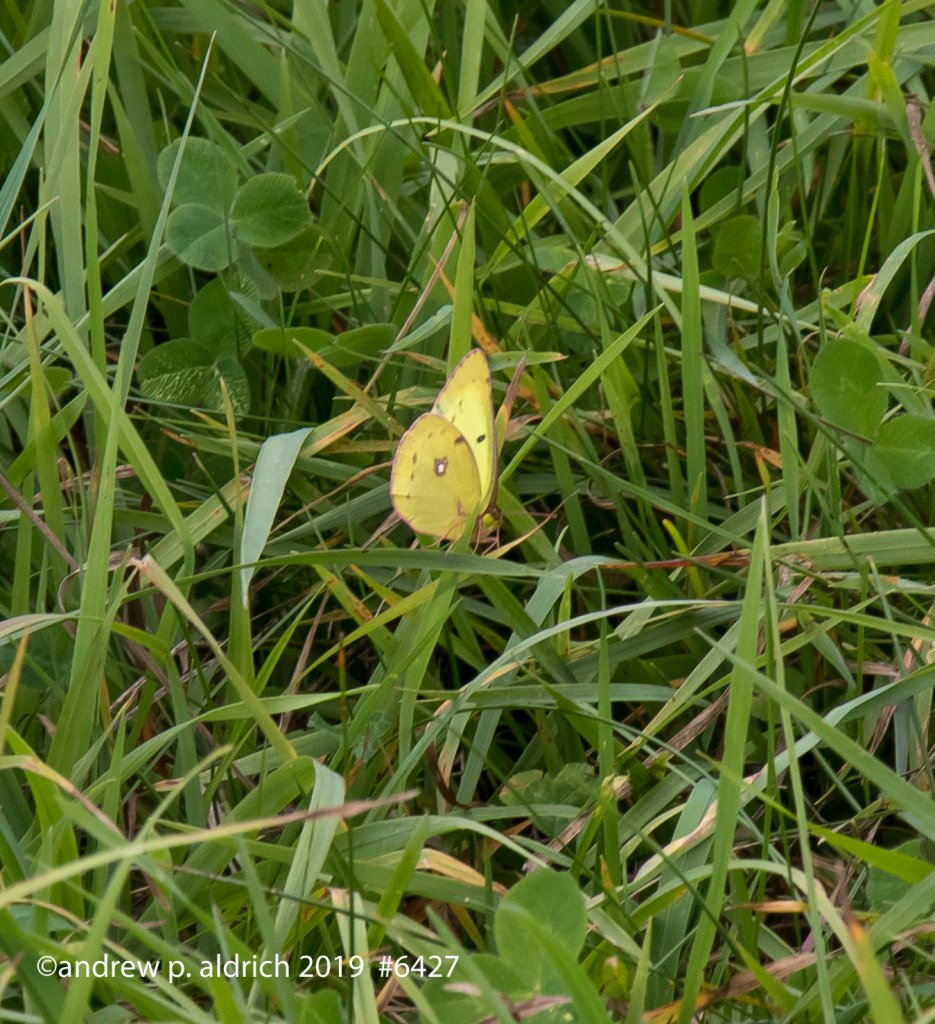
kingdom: Animalia
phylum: Arthropoda
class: Insecta
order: Lepidoptera
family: Pieridae
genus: Colias
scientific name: Colias
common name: Clouded Yellows
